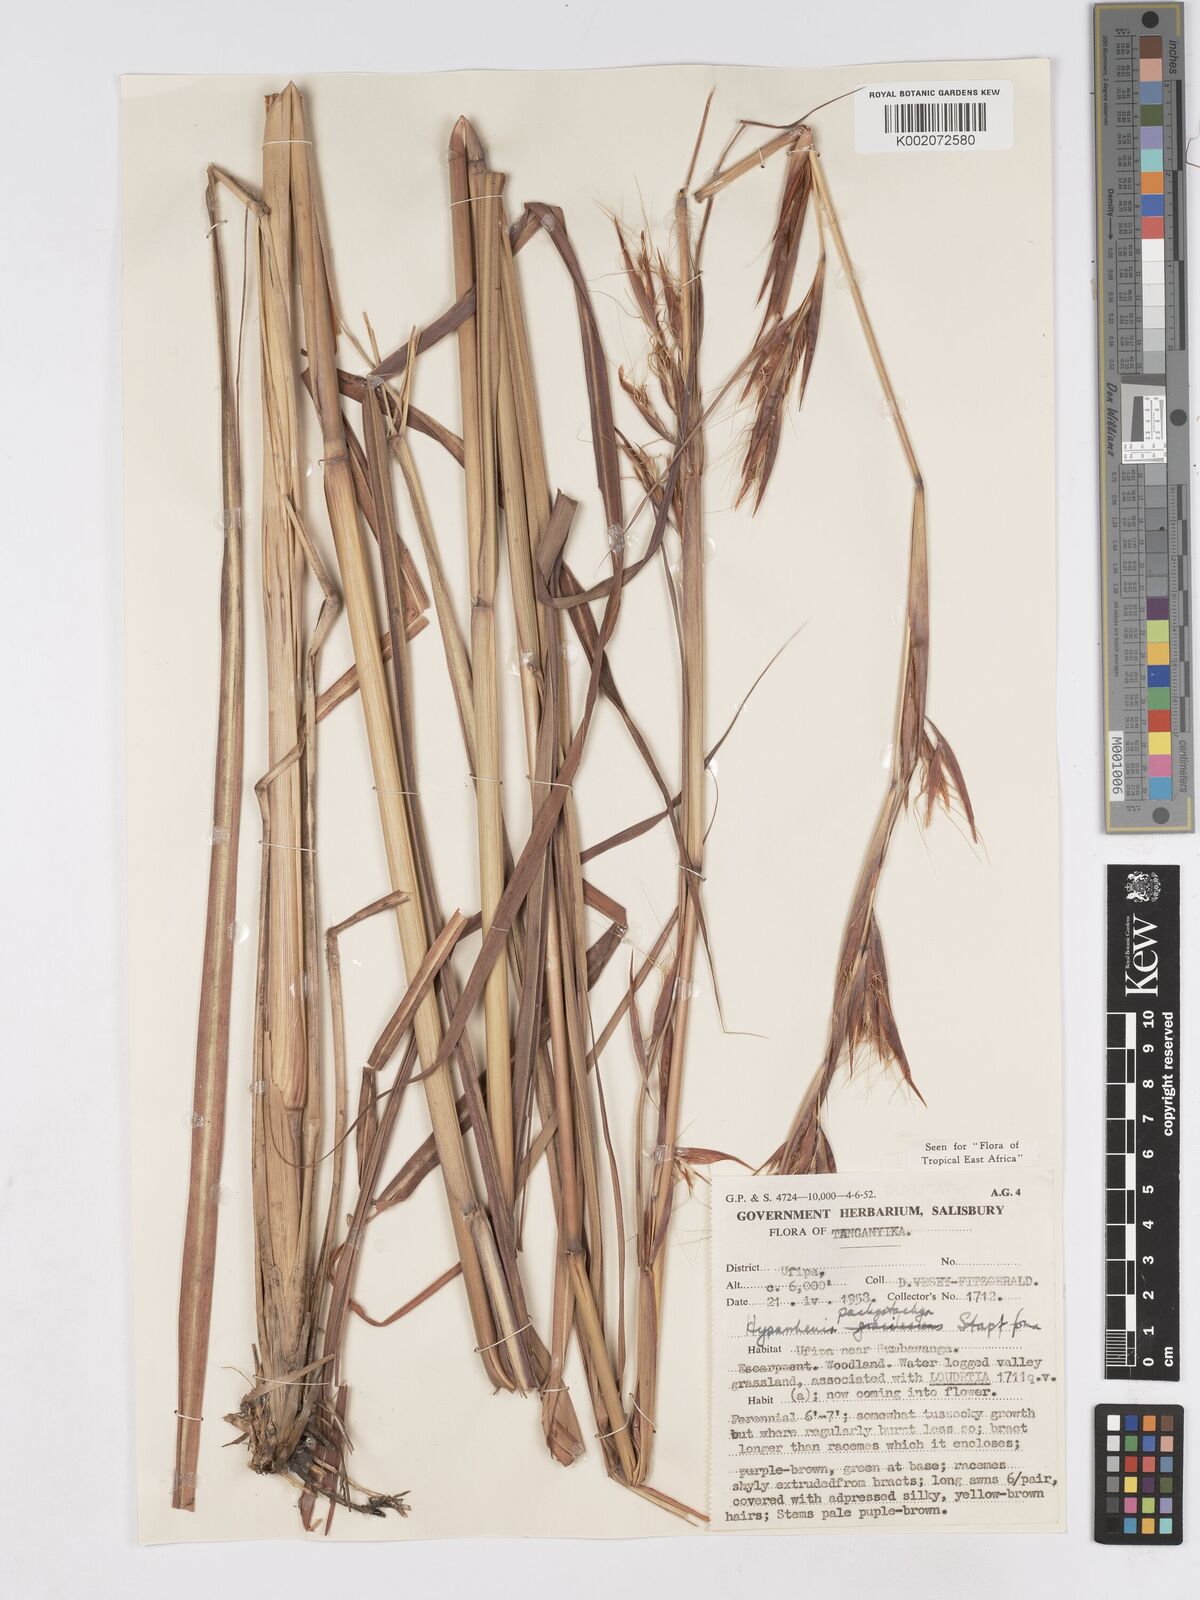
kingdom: Plantae
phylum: Tracheophyta
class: Liliopsida
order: Poales
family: Poaceae
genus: Hyparrhenia
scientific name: Hyparrhenia diplandra
